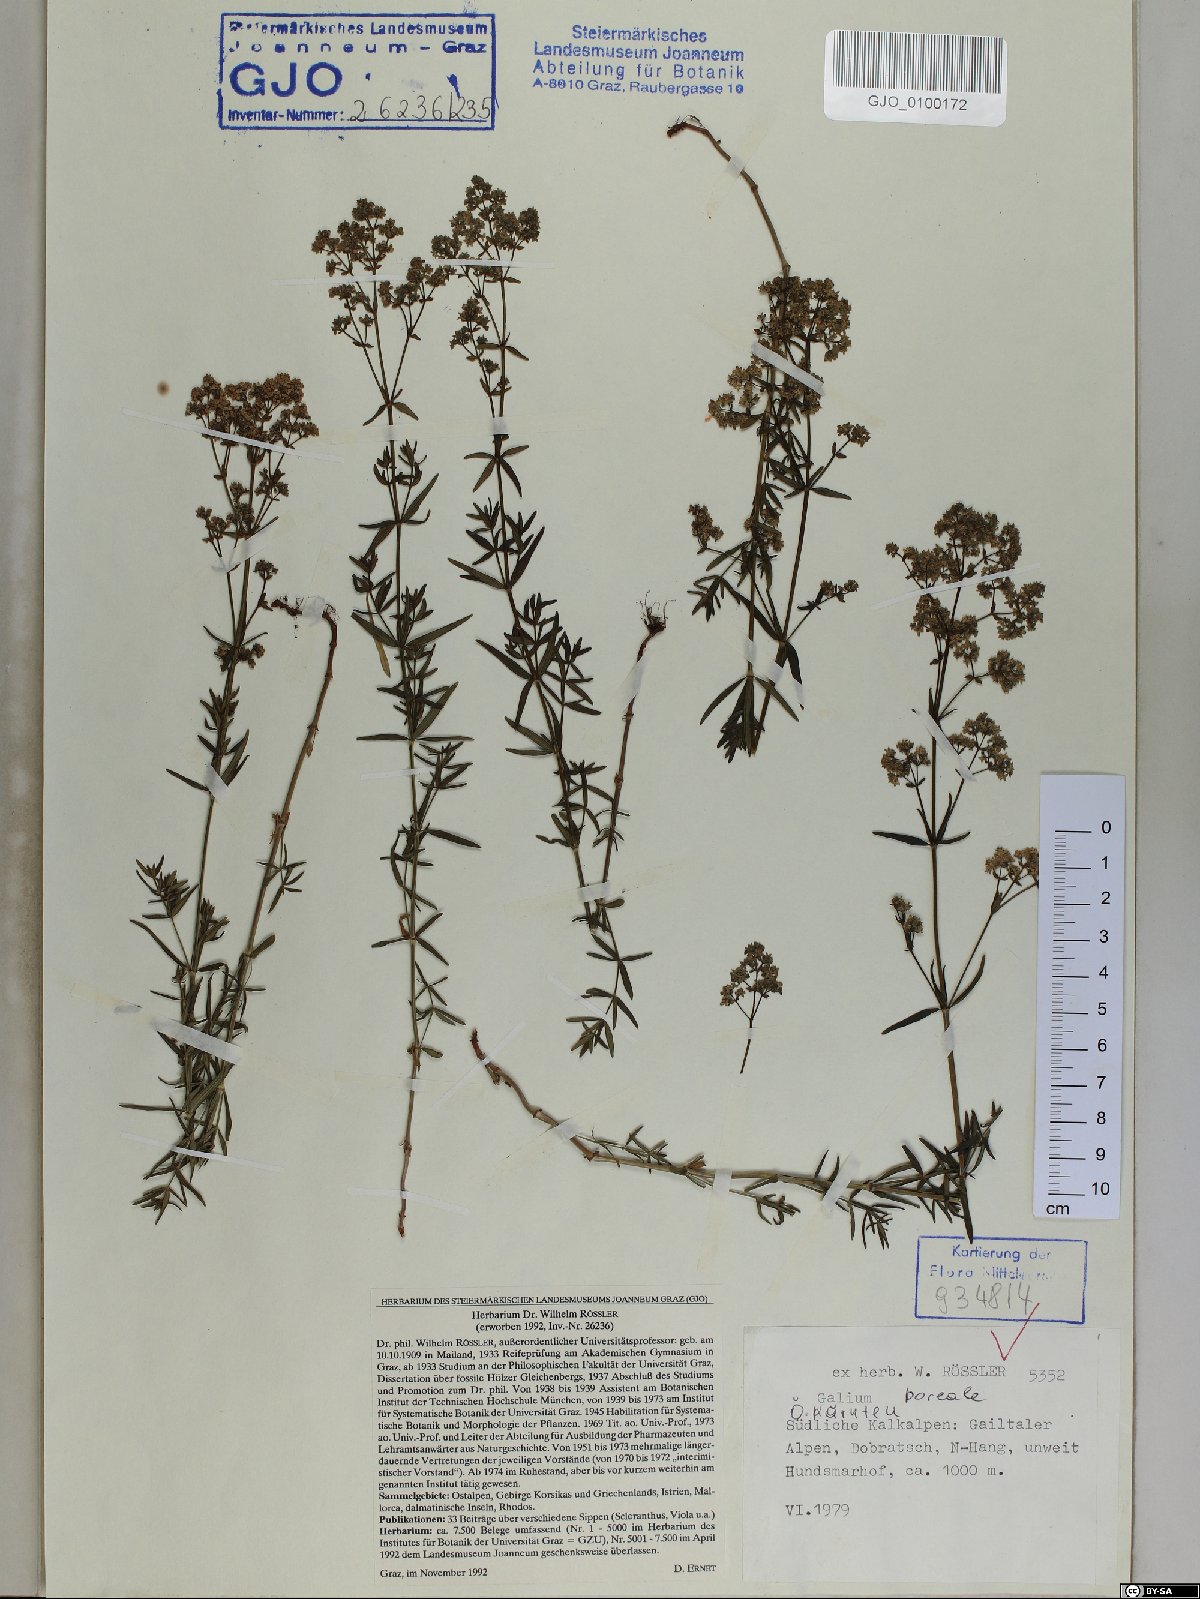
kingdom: Plantae
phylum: Tracheophyta
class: Magnoliopsida
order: Gentianales
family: Rubiaceae
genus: Galium
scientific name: Galium boreale
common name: Northern bedstraw
